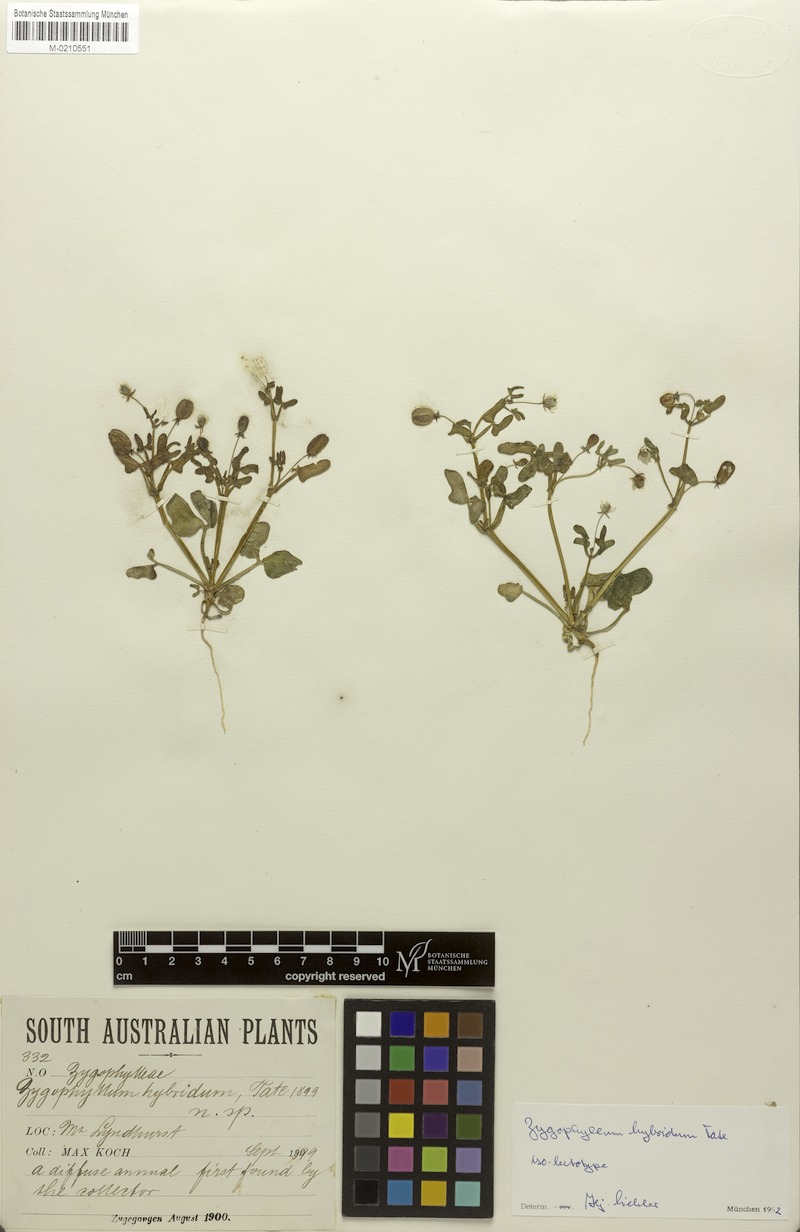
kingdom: Plantae
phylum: Tracheophyta
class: Magnoliopsida
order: Zygophyllales
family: Zygophyllaceae
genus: Roepera
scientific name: Roepera hybrida
